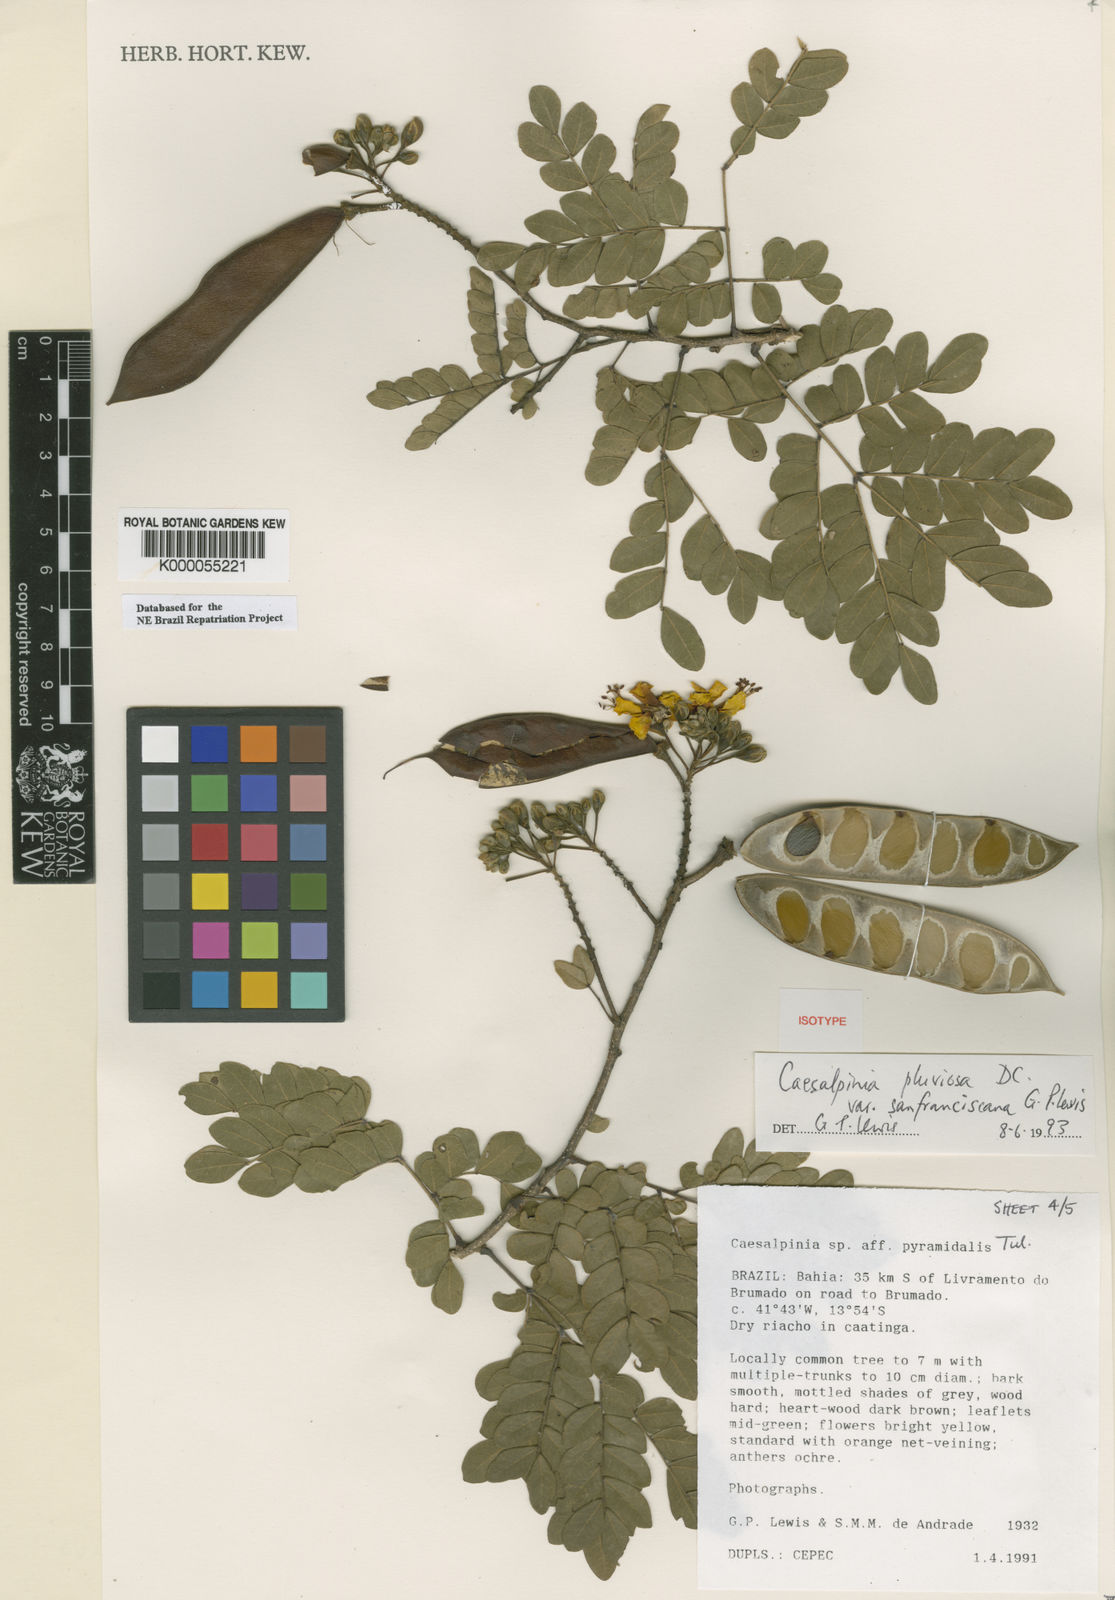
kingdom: Plantae
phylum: Tracheophyta
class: Magnoliopsida
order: Fabales
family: Fabaceae
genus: Cenostigma
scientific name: Cenostigma pluviosum
